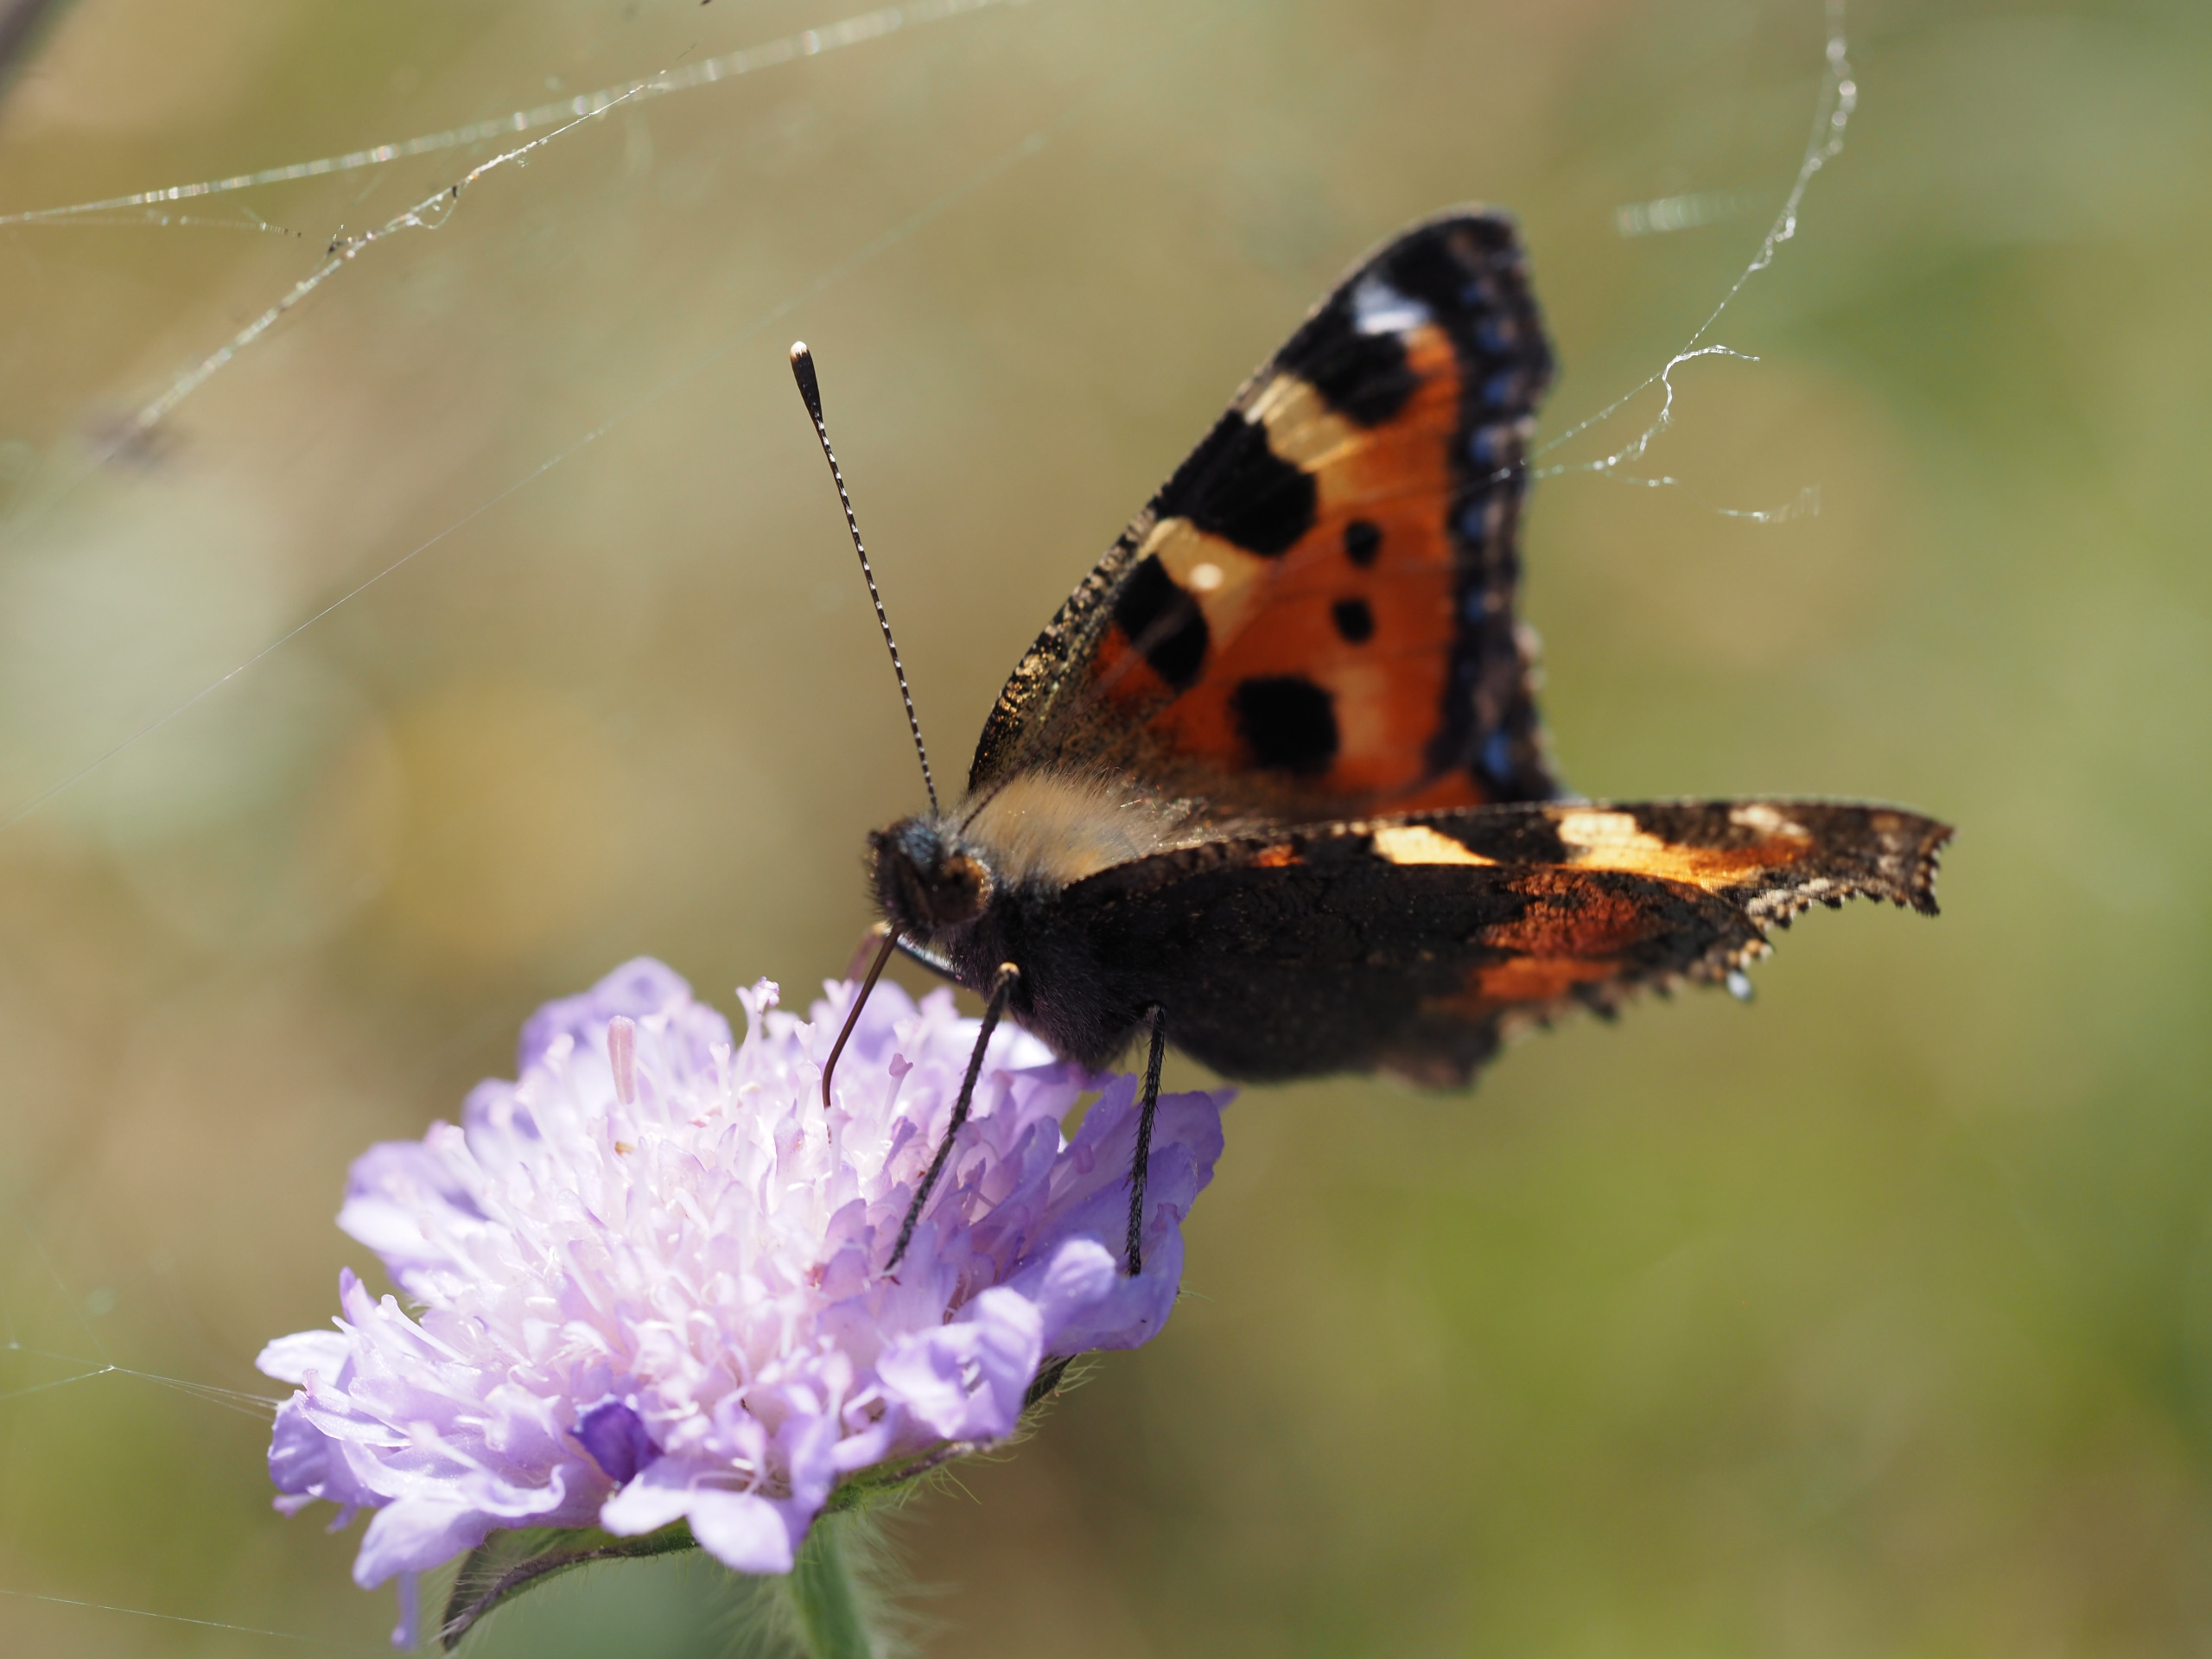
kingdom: Animalia
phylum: Arthropoda
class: Insecta
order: Lepidoptera
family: Nymphalidae
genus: Aglais
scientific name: Aglais urticae
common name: Nældens takvinge
